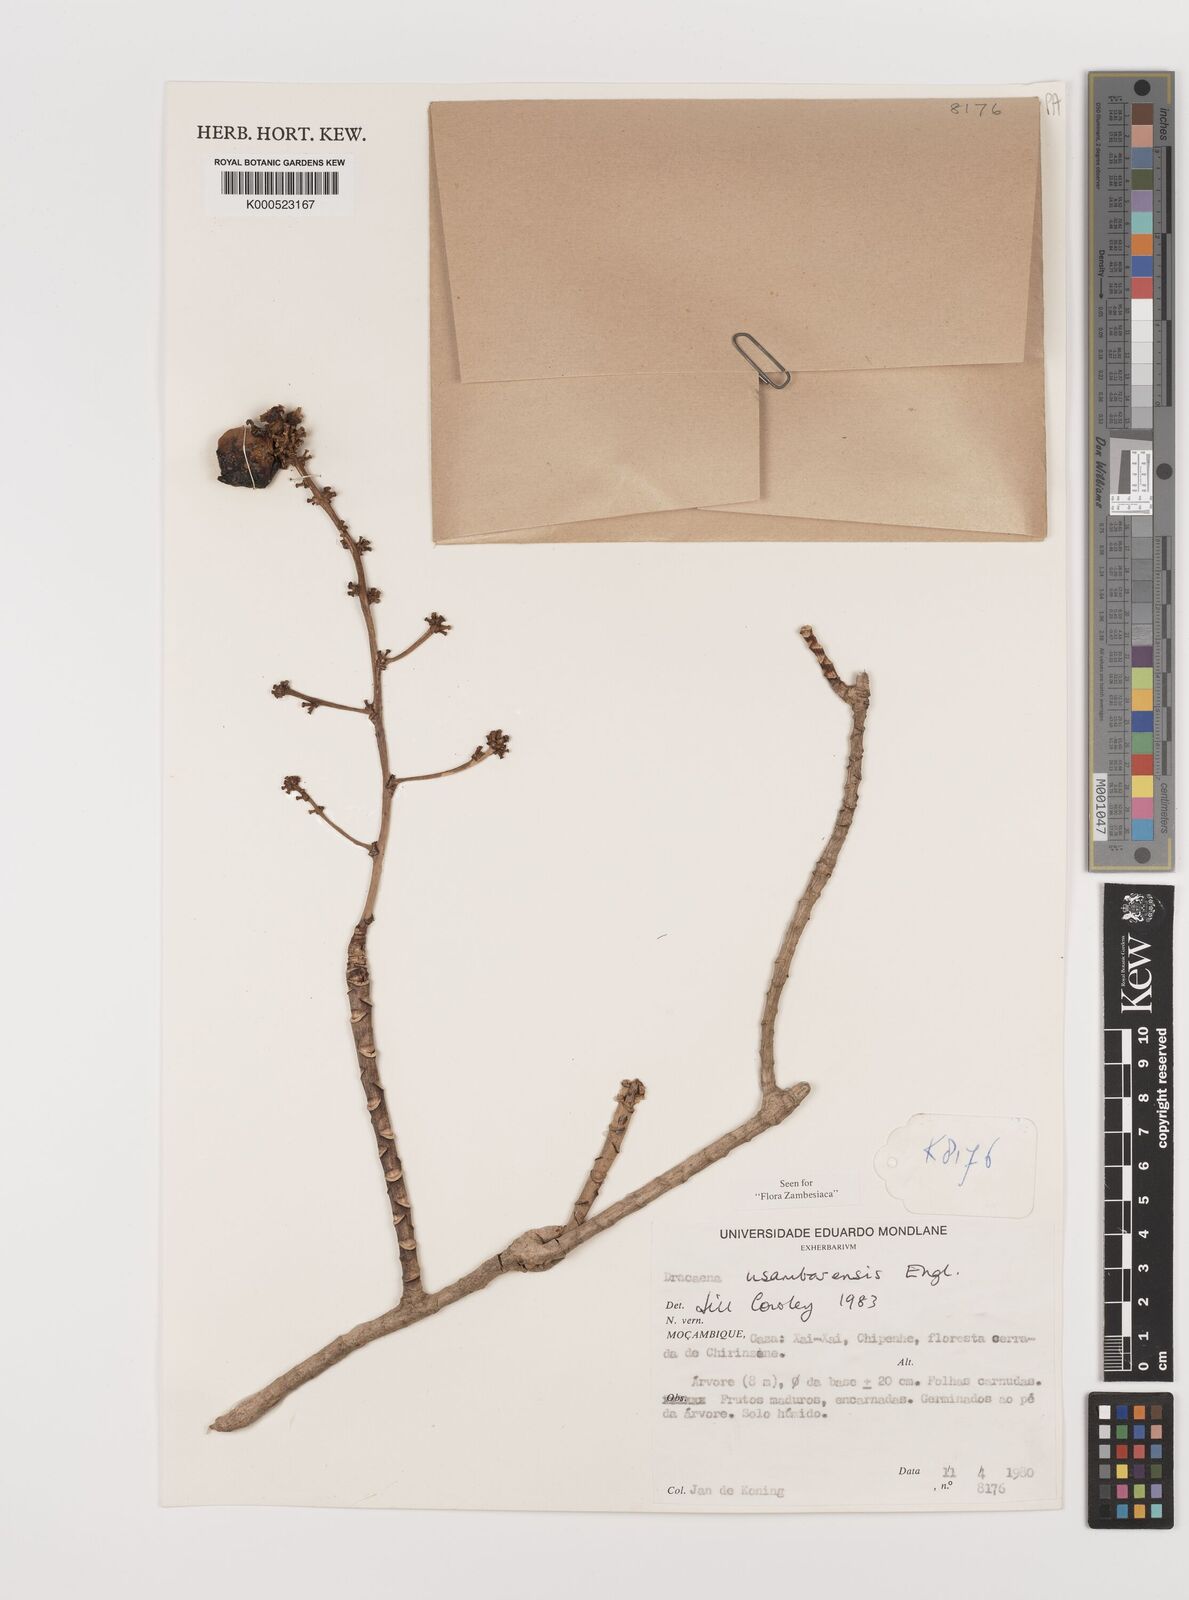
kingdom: Plantae
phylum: Tracheophyta
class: Liliopsida
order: Asparagales
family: Asparagaceae
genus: Dracaena
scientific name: Dracaena usambarensis
